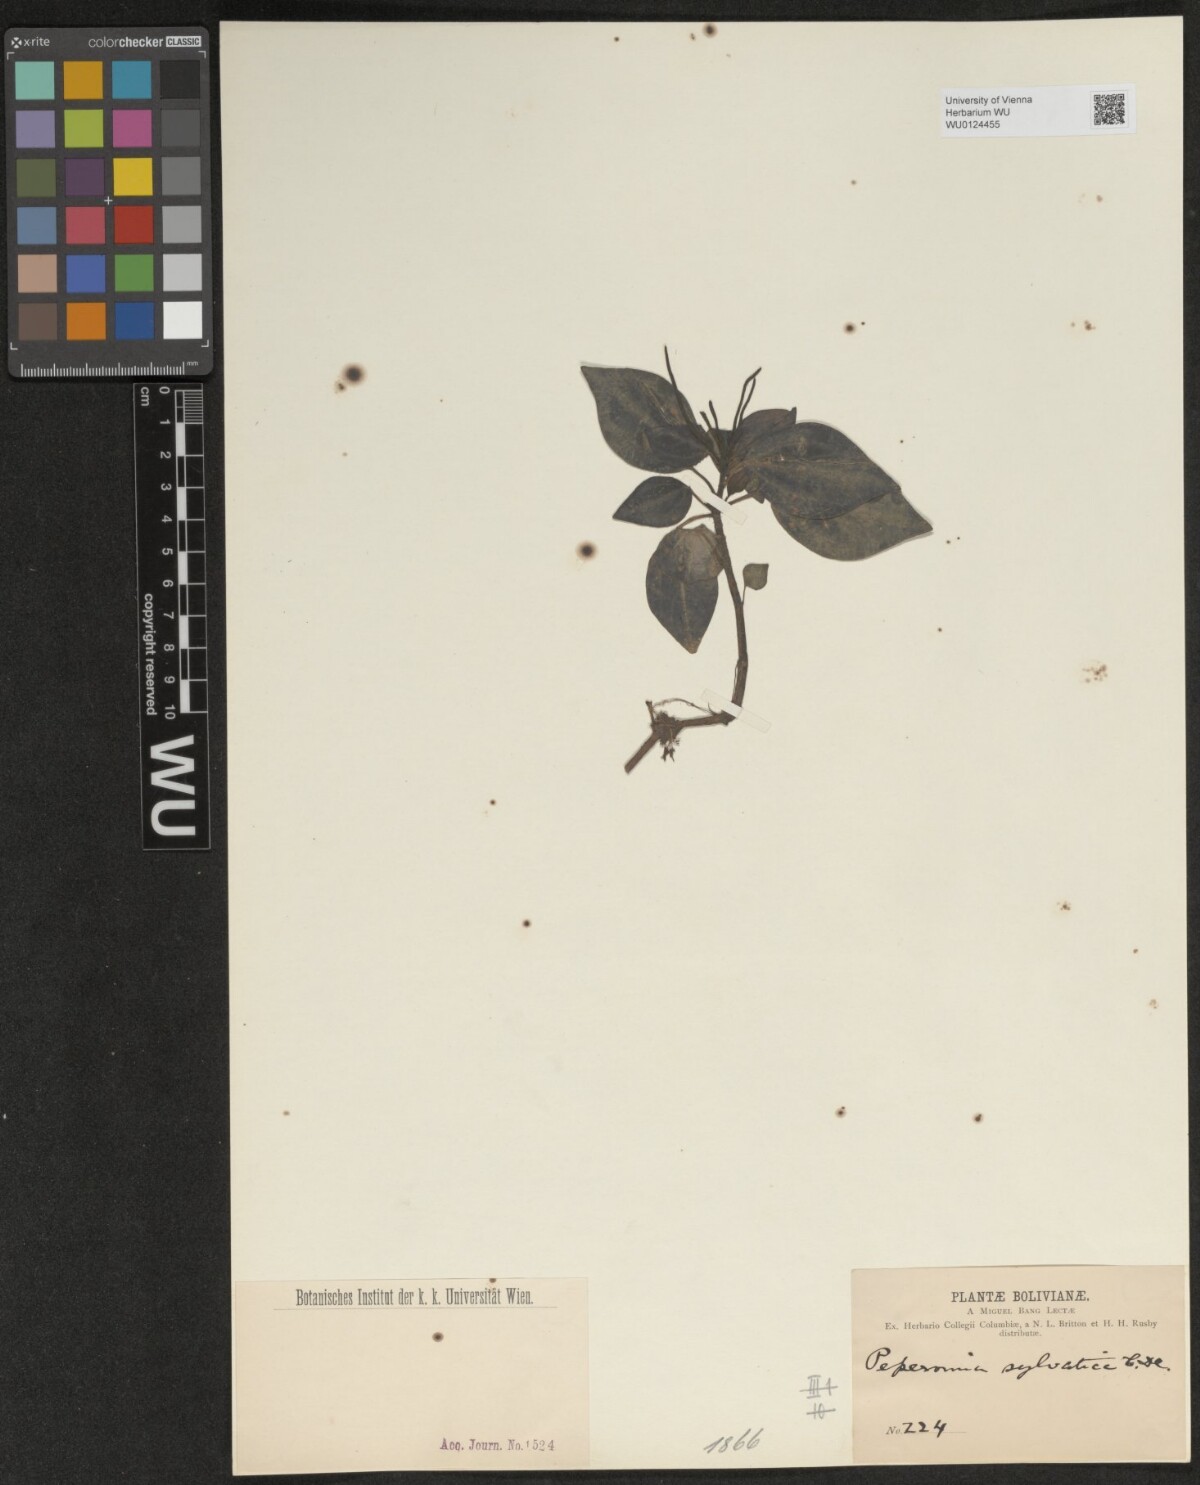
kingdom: Plantae
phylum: Tracheophyta
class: Magnoliopsida
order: Piperales
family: Piperaceae
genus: Peperomia
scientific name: Peperomia sylvatica
